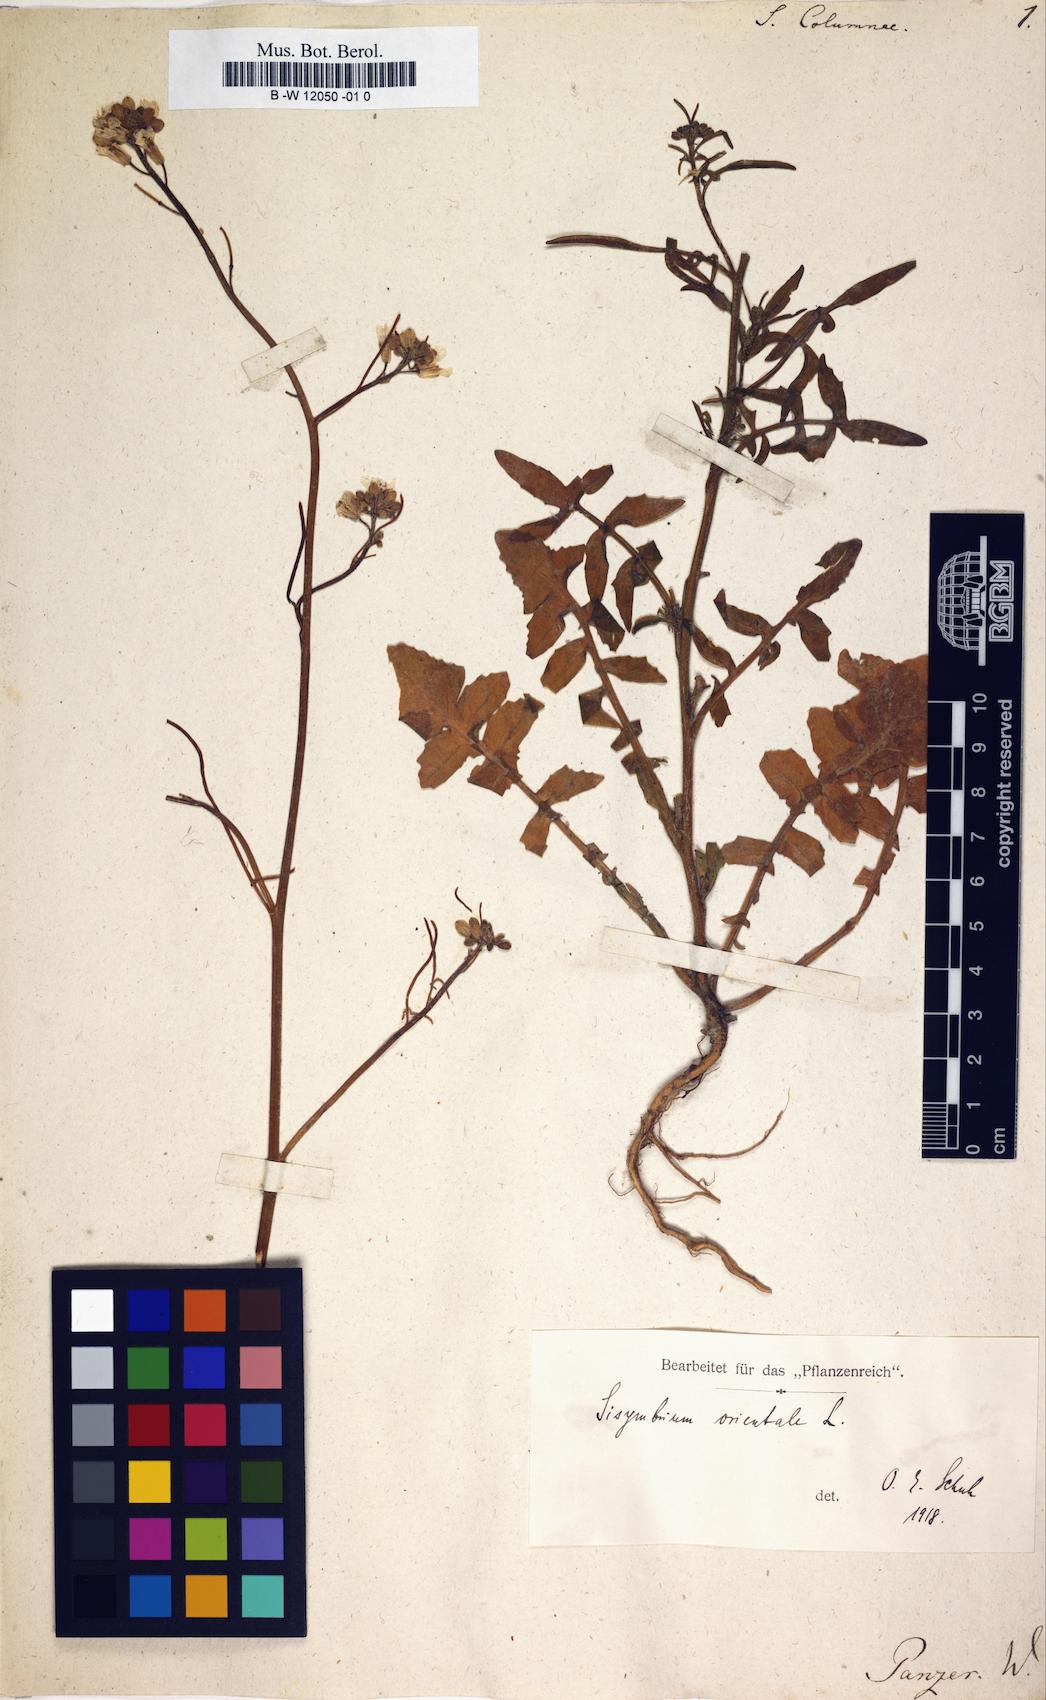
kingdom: Plantae
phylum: Tracheophyta
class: Magnoliopsida
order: Brassicales
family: Brassicaceae
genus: Sisymbrium
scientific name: Sisymbrium orientale
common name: Eastern rocket
